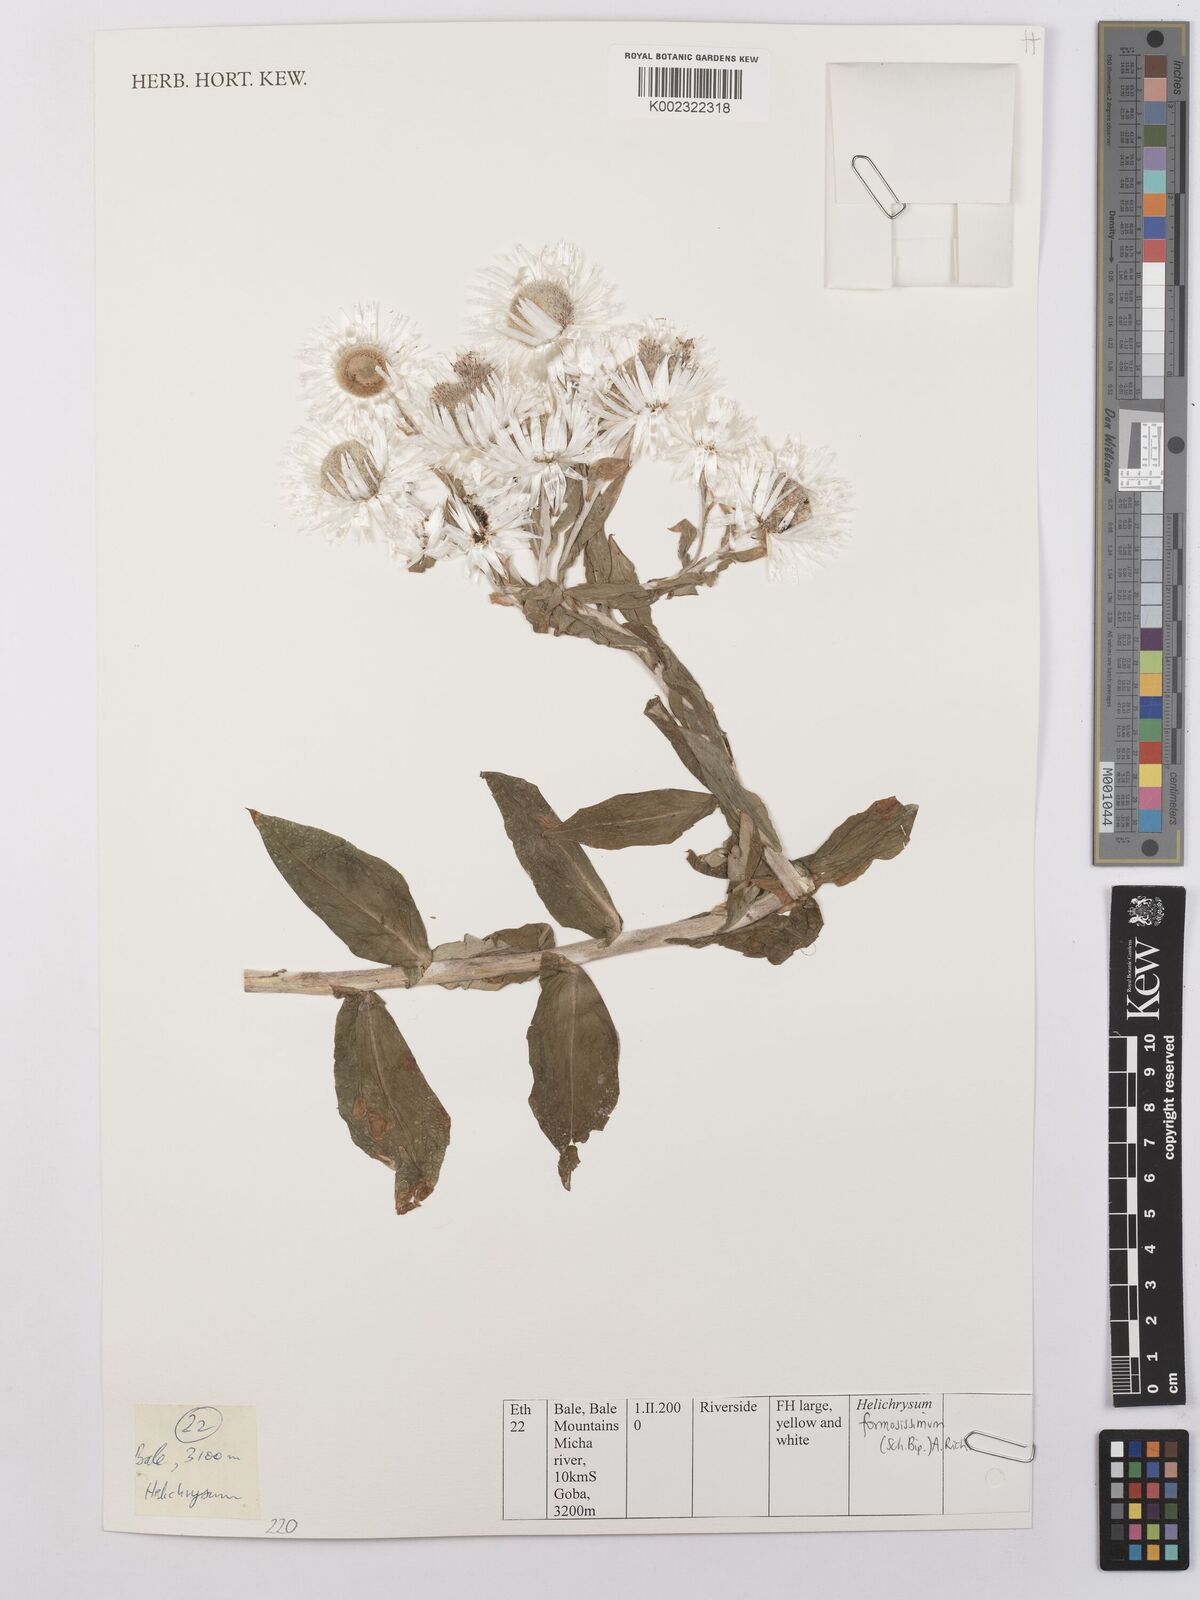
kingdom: Plantae
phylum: Tracheophyta
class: Magnoliopsida
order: Asterales
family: Asteraceae
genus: Helichrysum
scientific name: Helichrysum formosissimum
